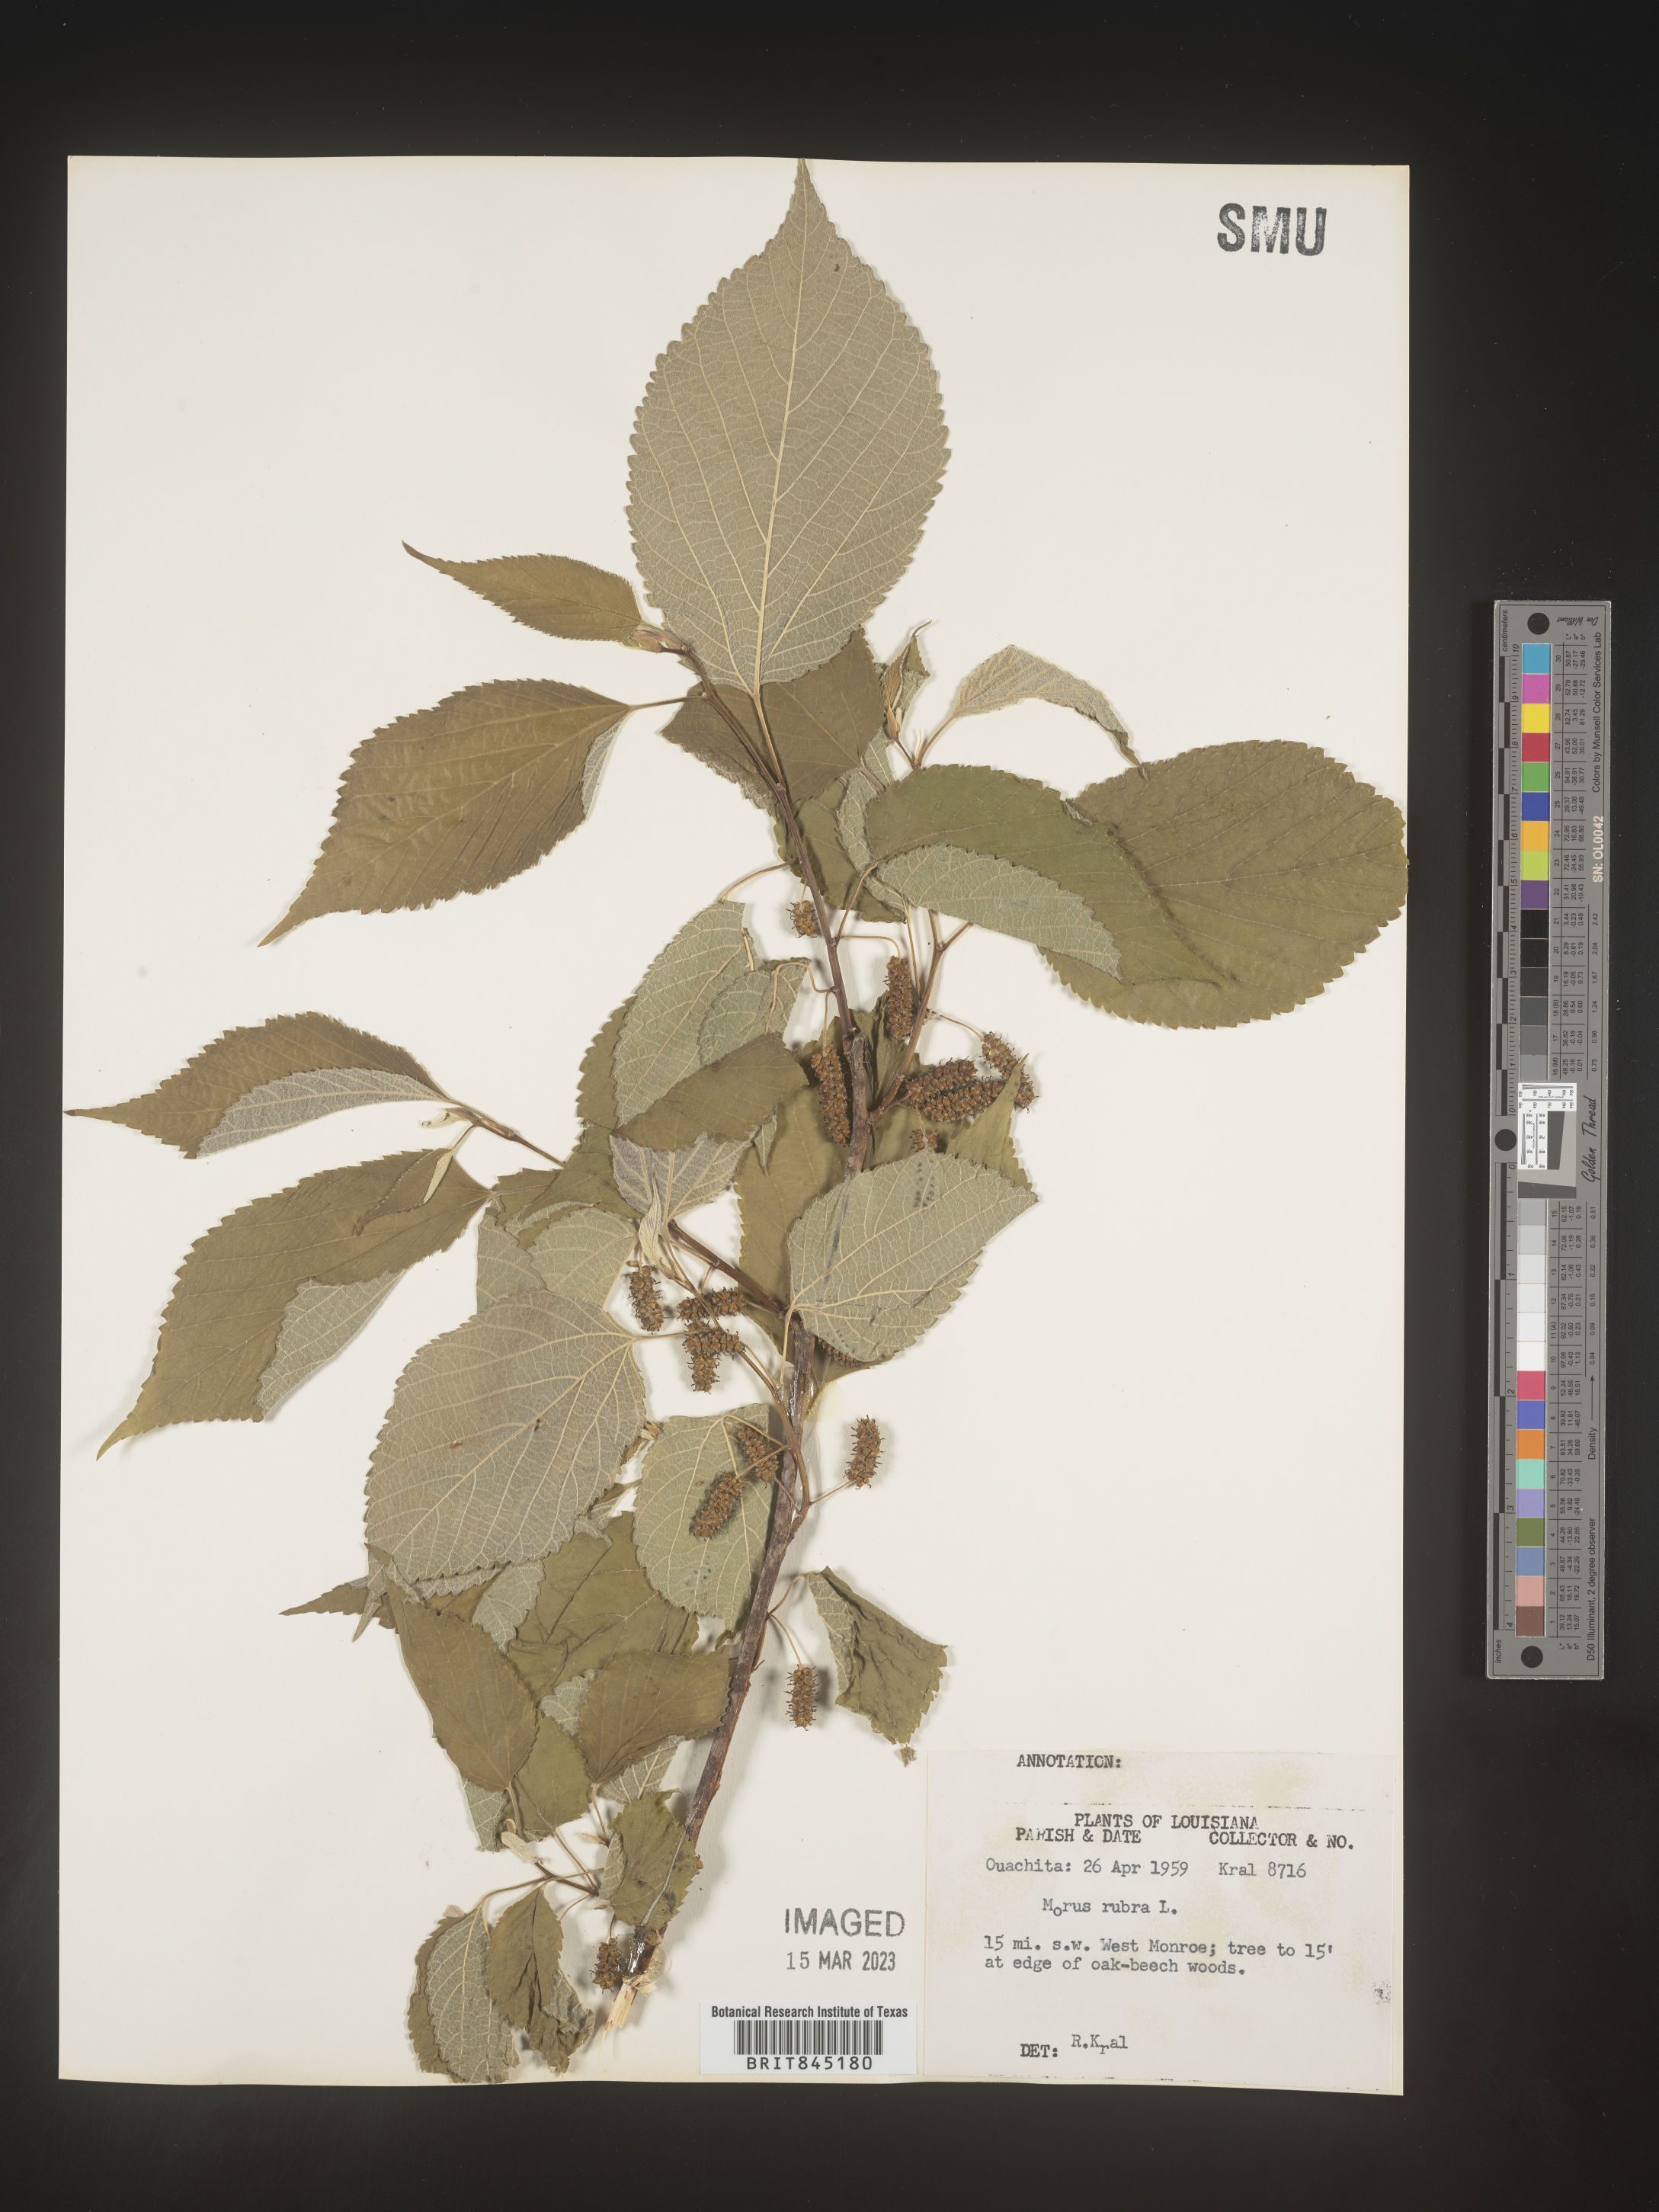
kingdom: Plantae
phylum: Tracheophyta
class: Magnoliopsida
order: Rosales
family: Moraceae
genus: Morus
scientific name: Morus rubra
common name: Red mulberry
